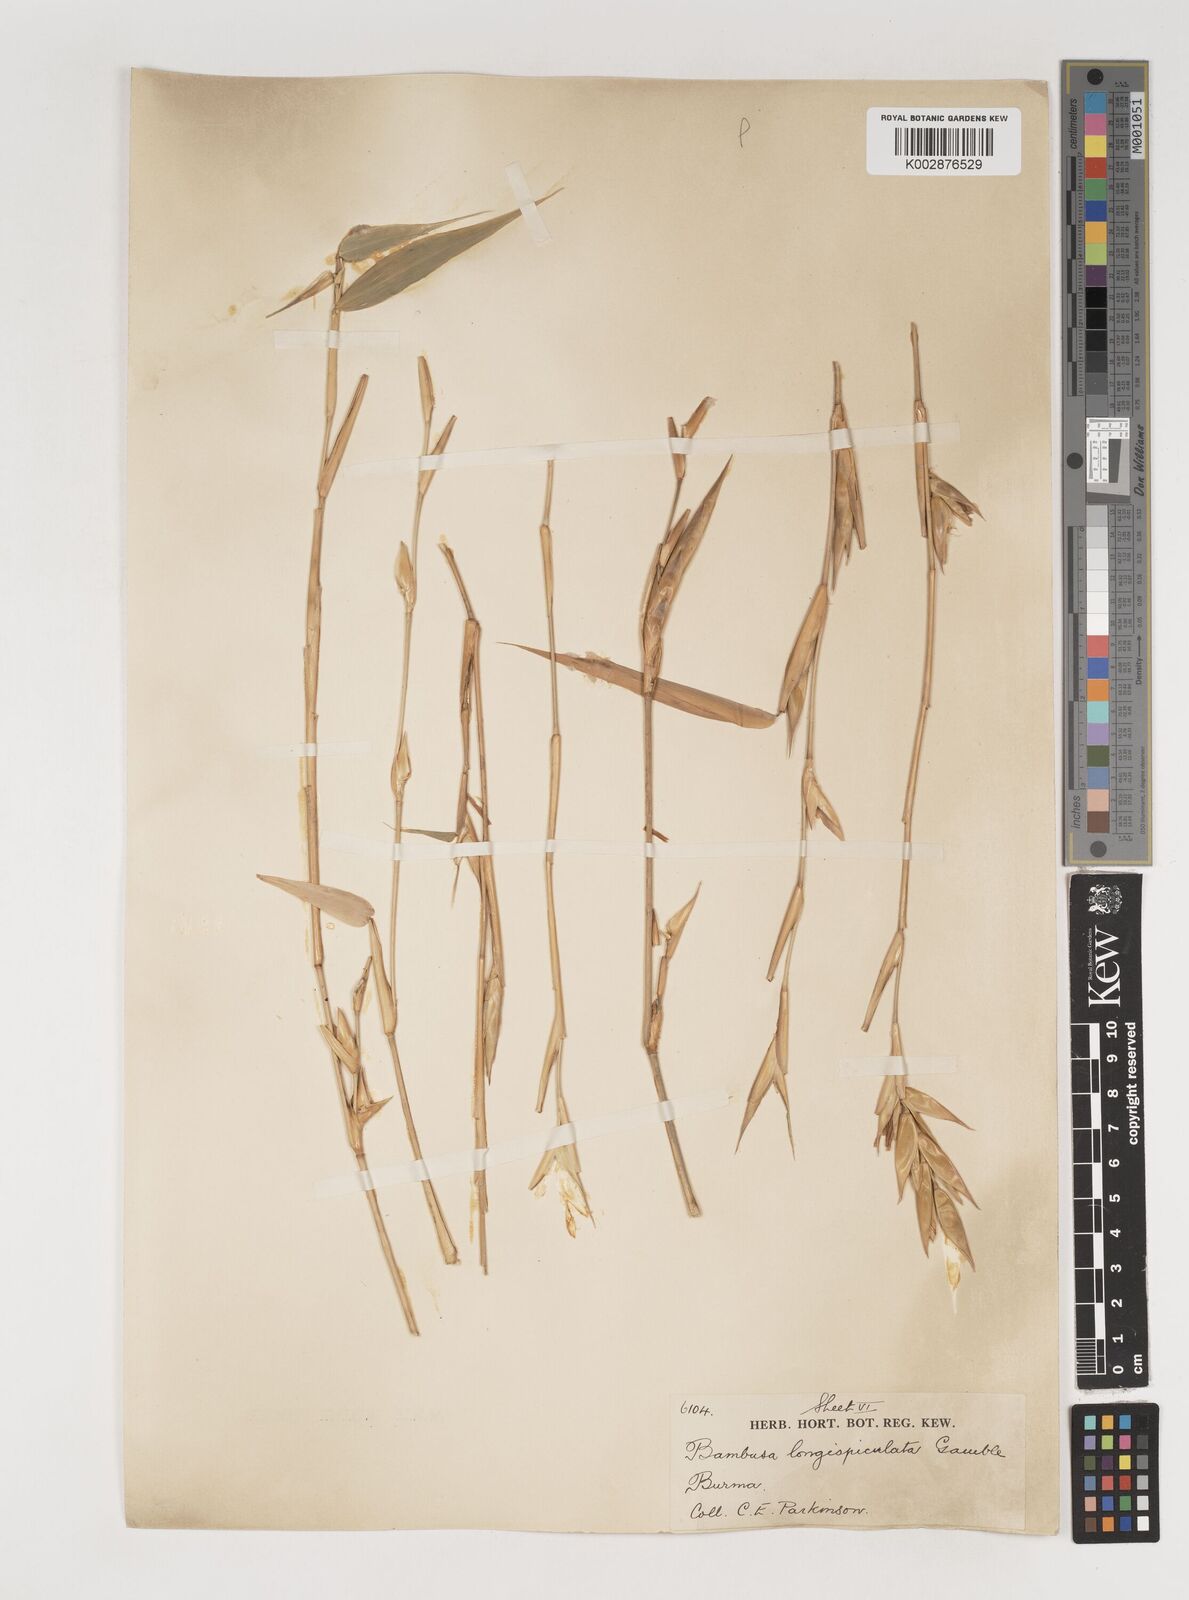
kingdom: Plantae
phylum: Tracheophyta
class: Liliopsida
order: Poales
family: Poaceae
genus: Bambusa
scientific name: Bambusa longispiculata
